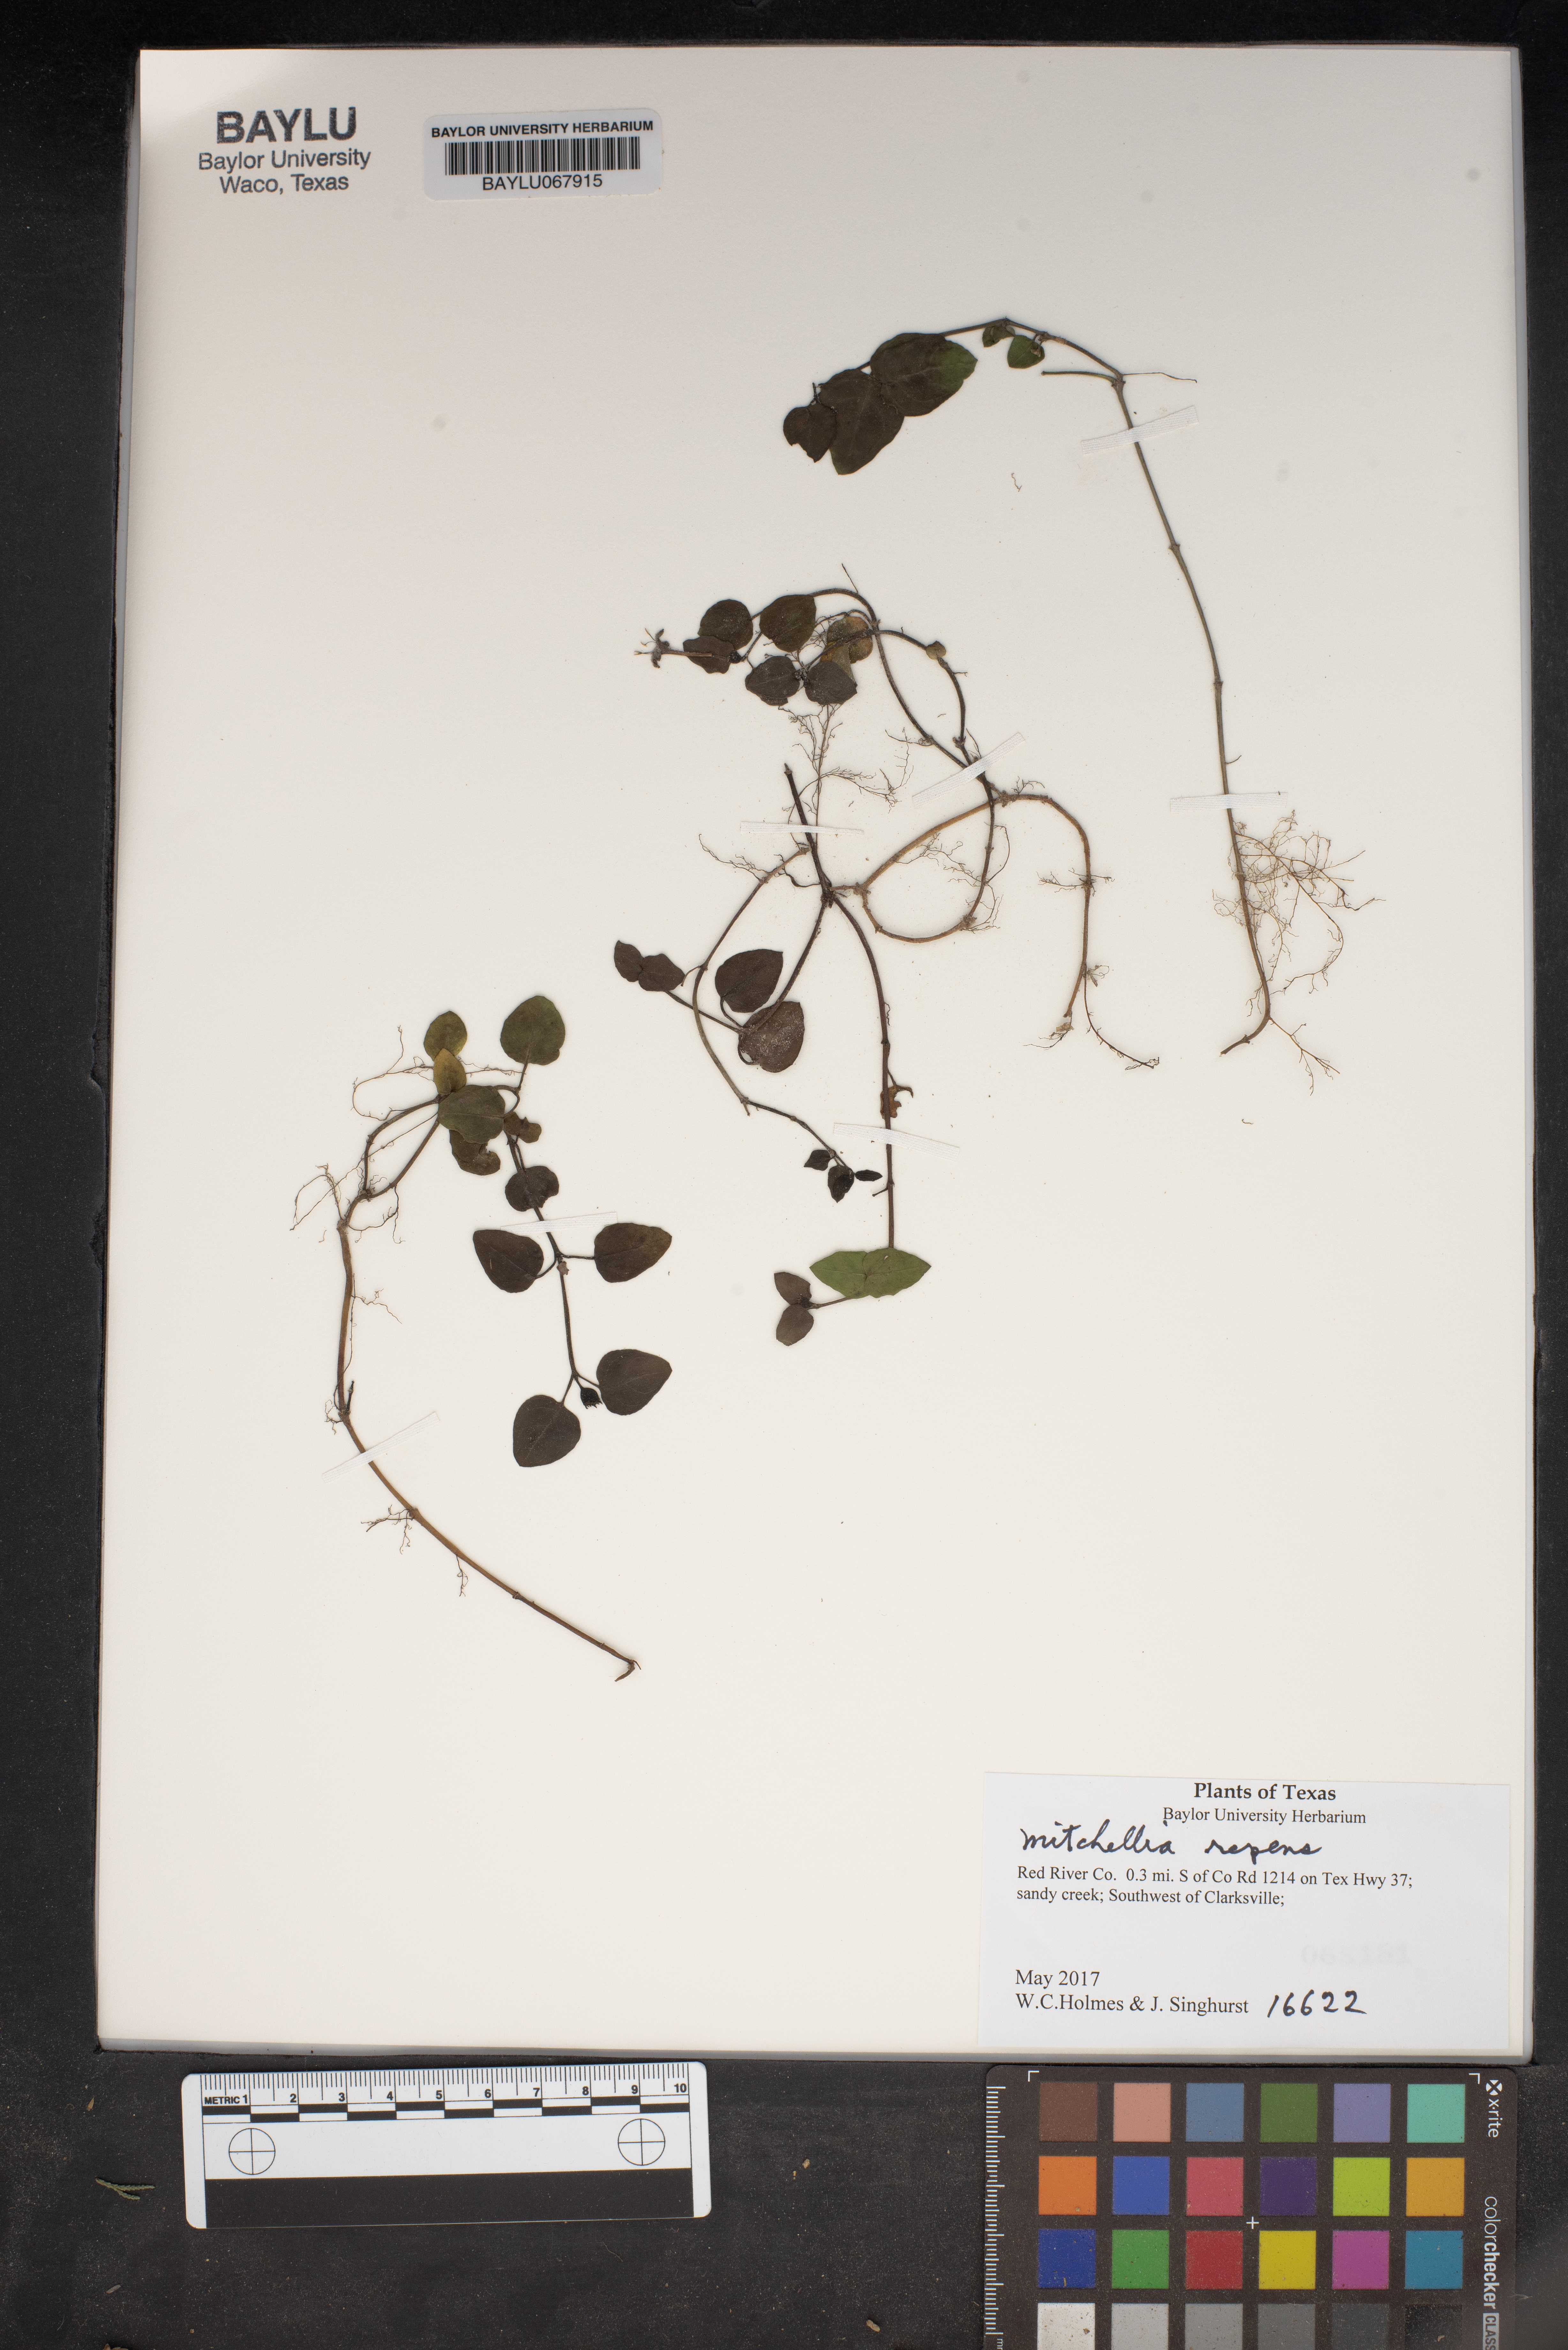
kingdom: Plantae
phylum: Tracheophyta
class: Magnoliopsida
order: Gentianales
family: Rubiaceae
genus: Mitchella
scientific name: Mitchella repens
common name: Partridge-berry
